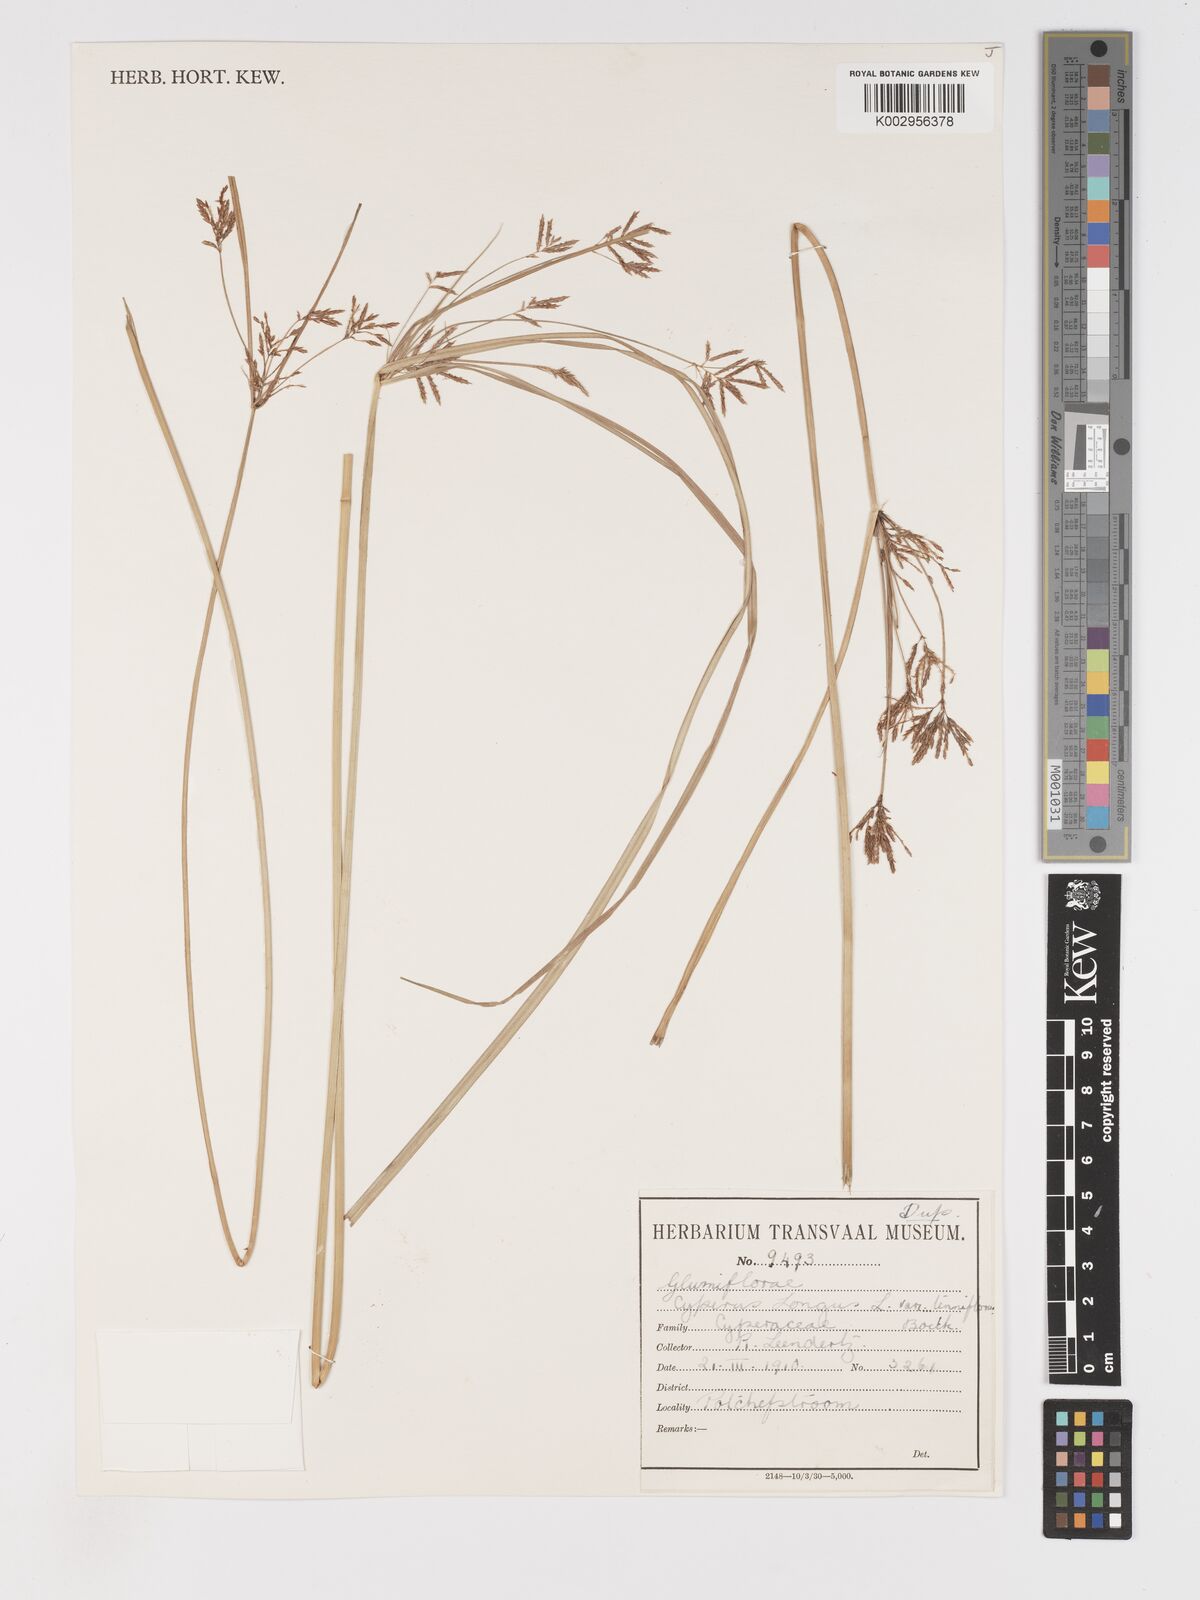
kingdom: Plantae
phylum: Tracheophyta
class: Liliopsida
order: Poales
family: Cyperaceae
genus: Cyperus
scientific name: Cyperus longus
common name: Galingale
